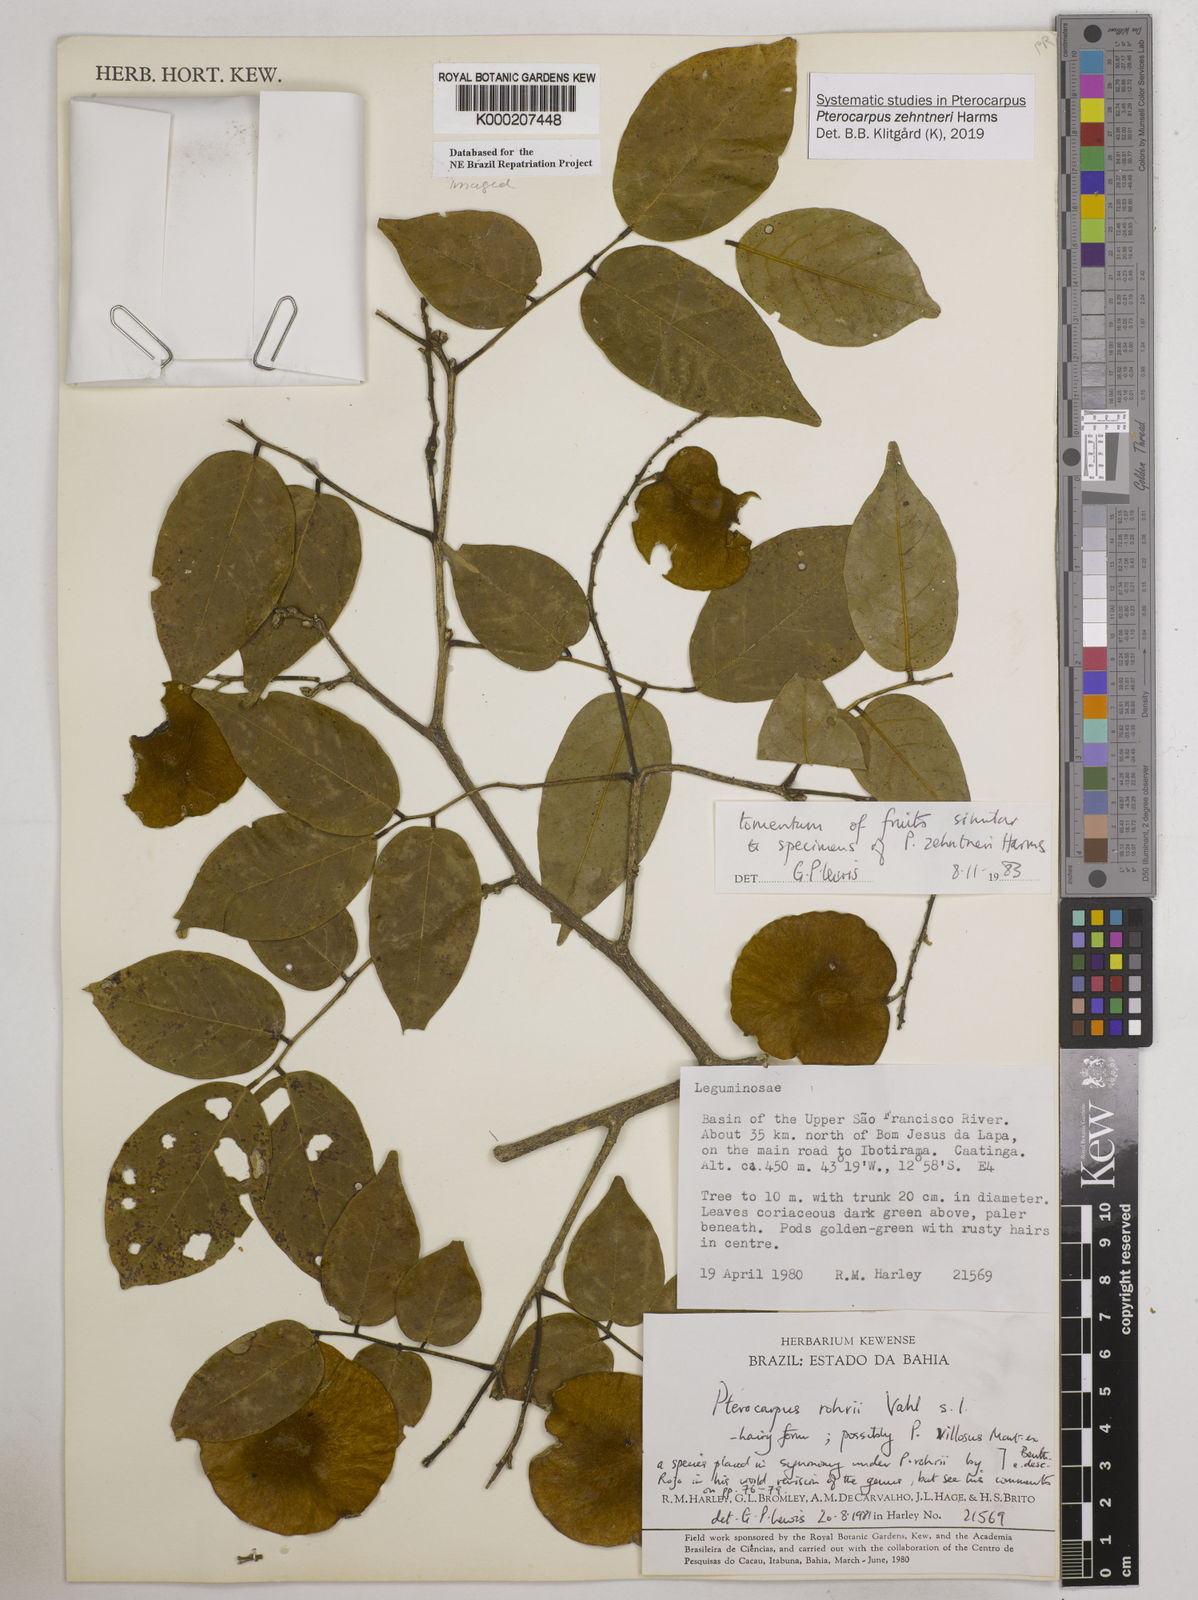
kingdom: Plantae
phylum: Tracheophyta
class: Magnoliopsida
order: Fabales
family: Fabaceae
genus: Pterocarpus
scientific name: Pterocarpus
